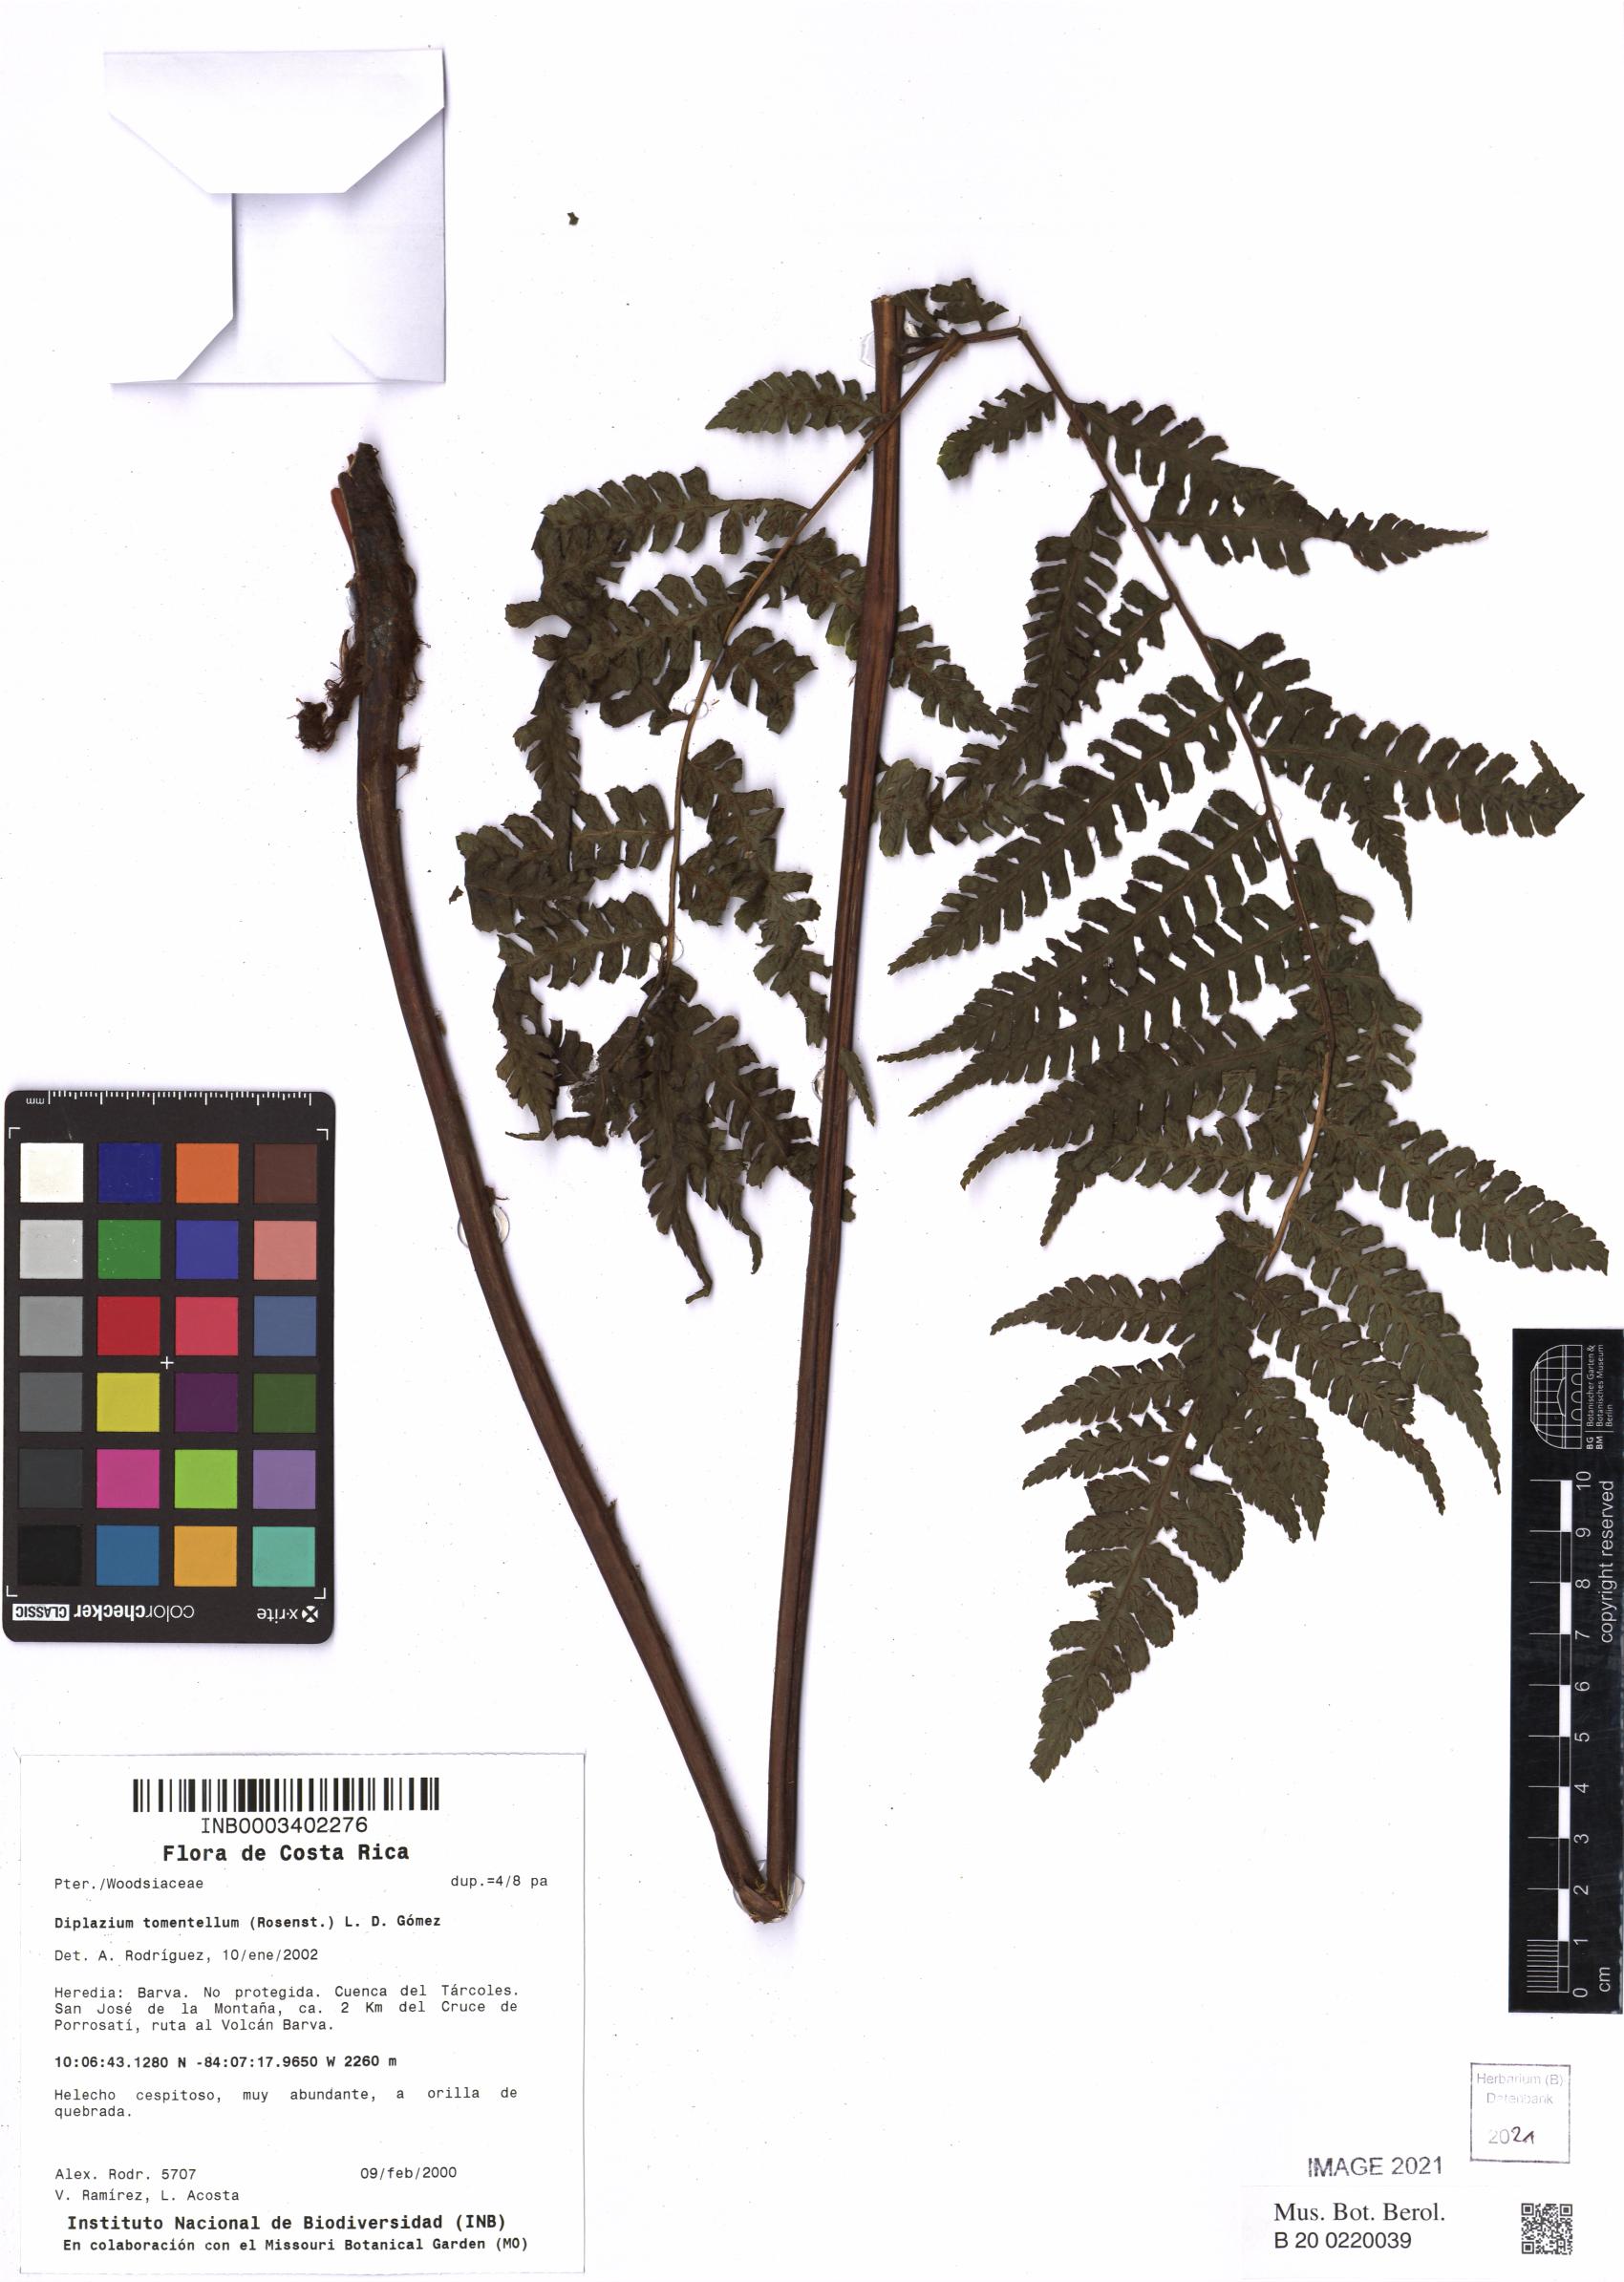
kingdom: Plantae
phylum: Tracheophyta
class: Polypodiopsida
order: Polypodiales
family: Athyriaceae
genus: Diplazium
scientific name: Diplazium tomentellum
